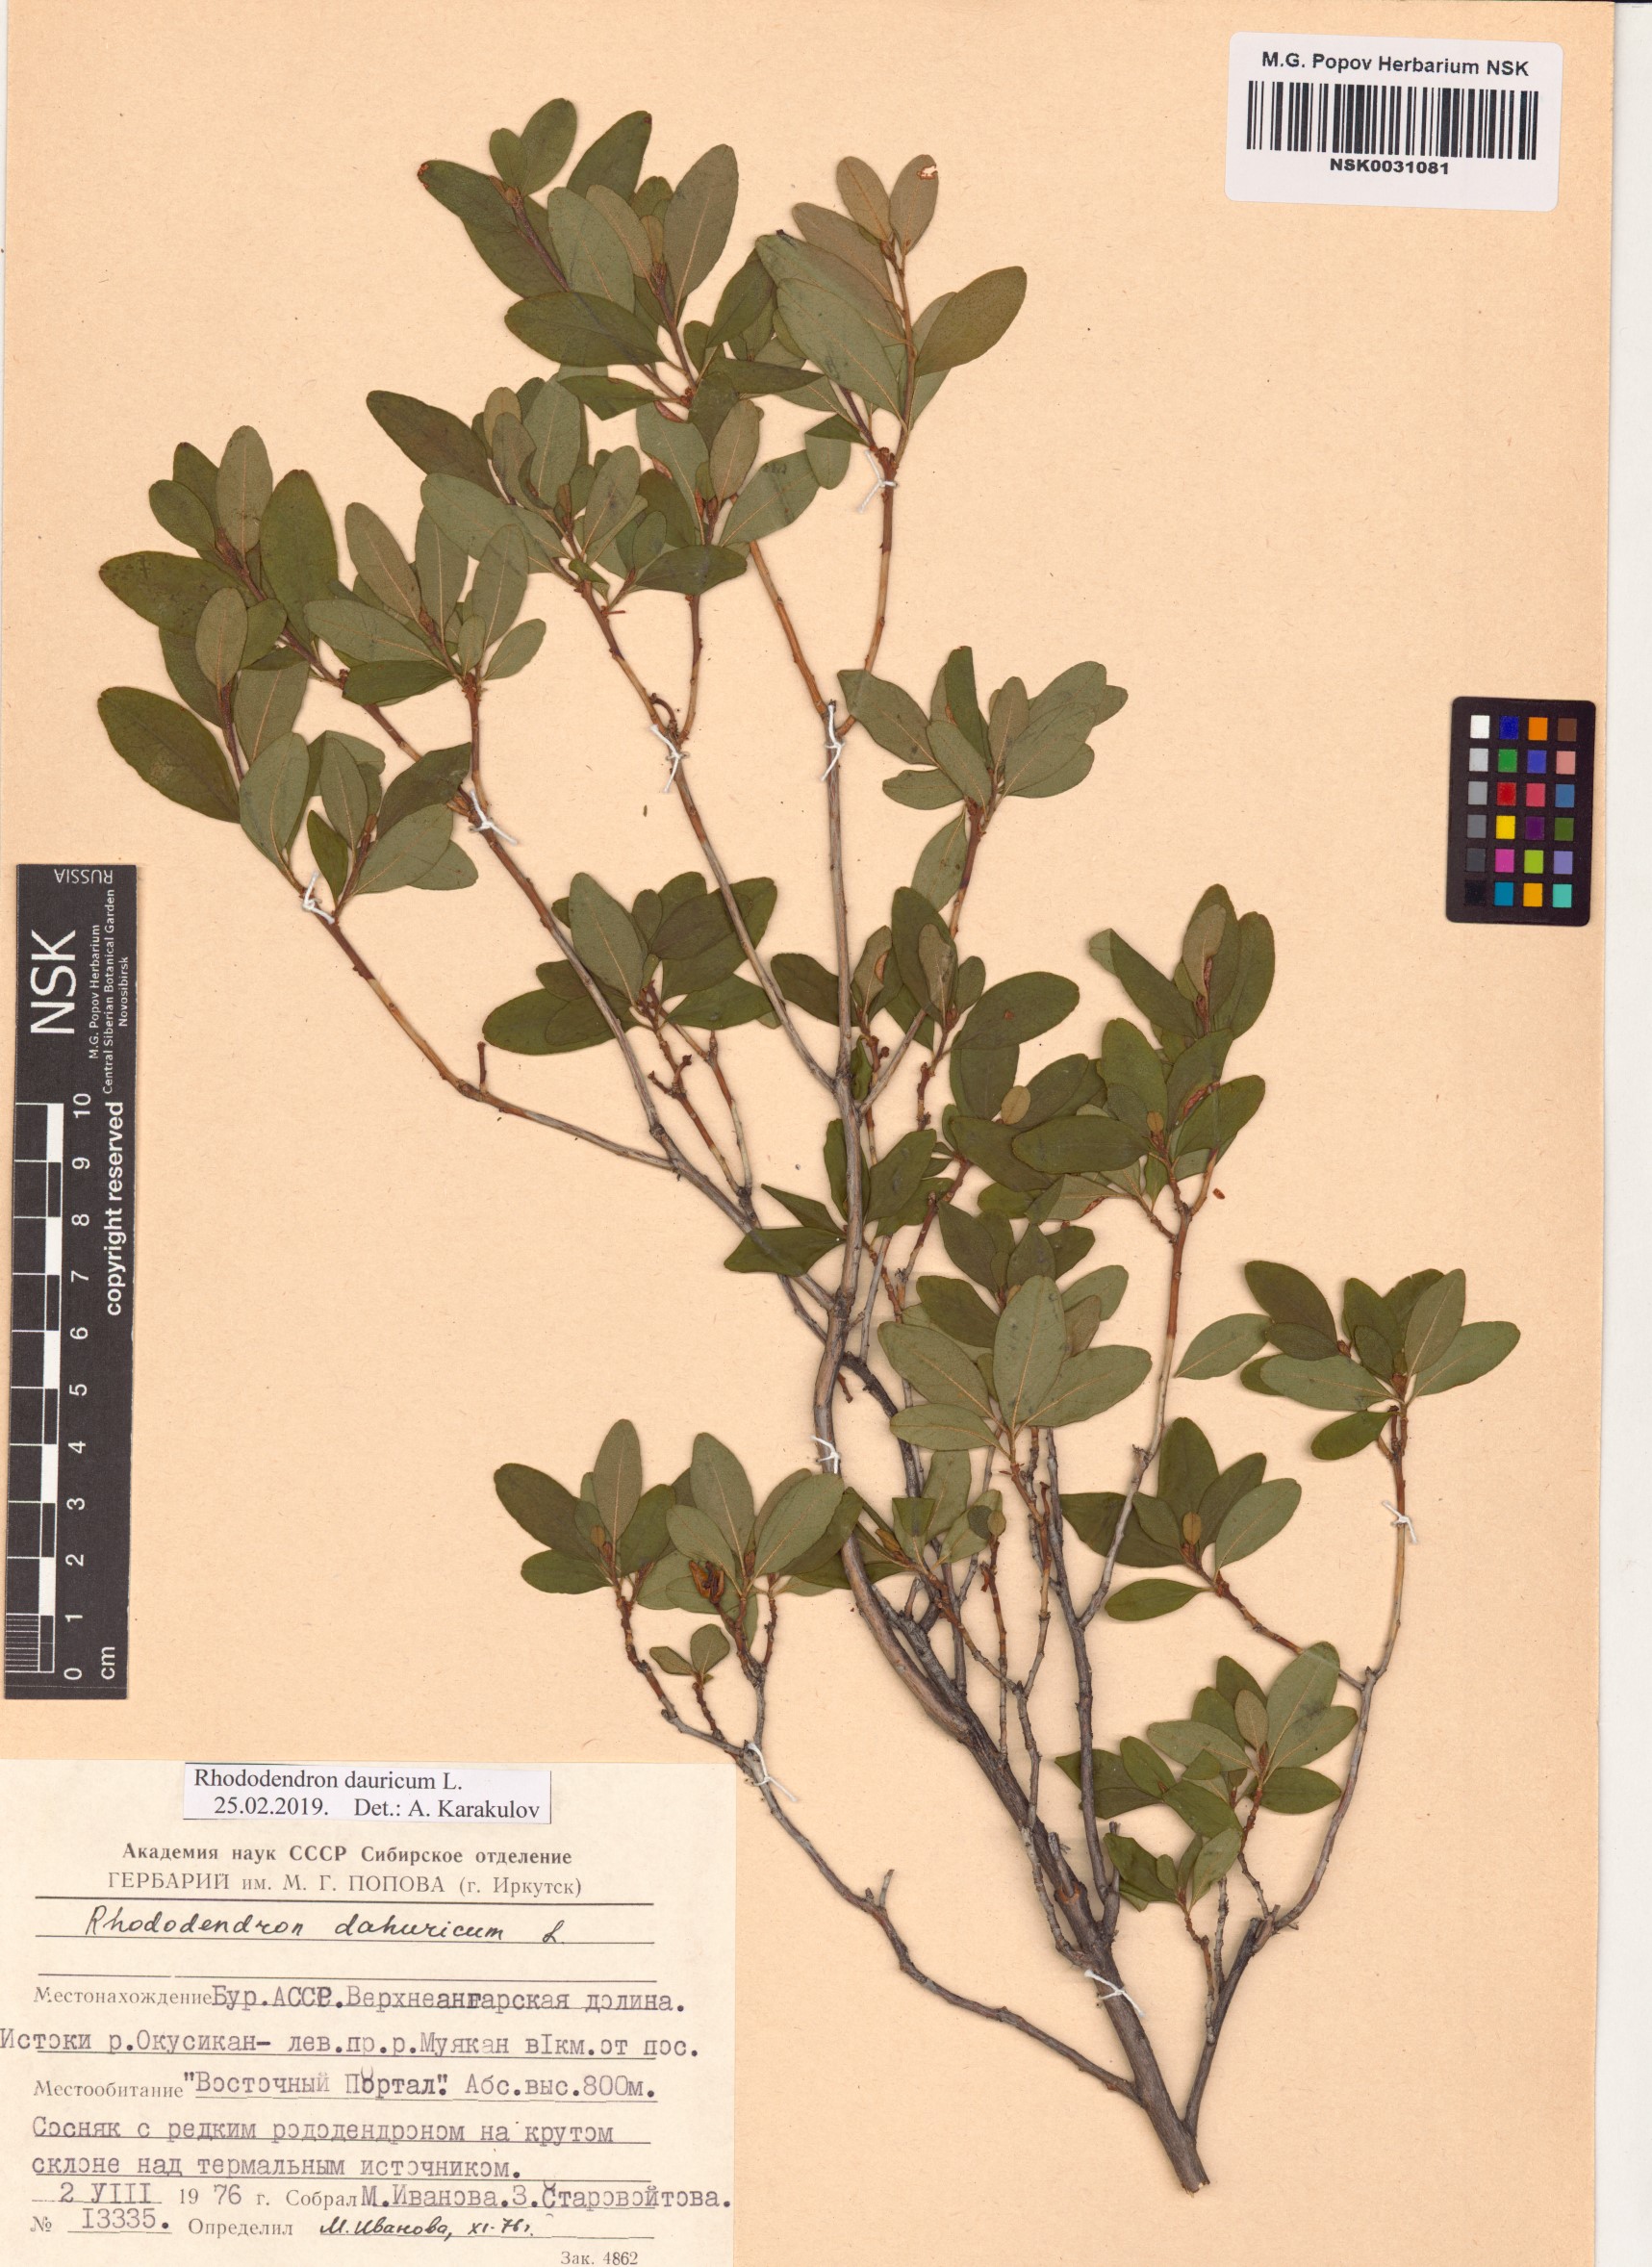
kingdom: Plantae
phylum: Tracheophyta
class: Magnoliopsida
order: Ericales
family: Ericaceae
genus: Rhododendron
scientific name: Rhododendron dauricum
